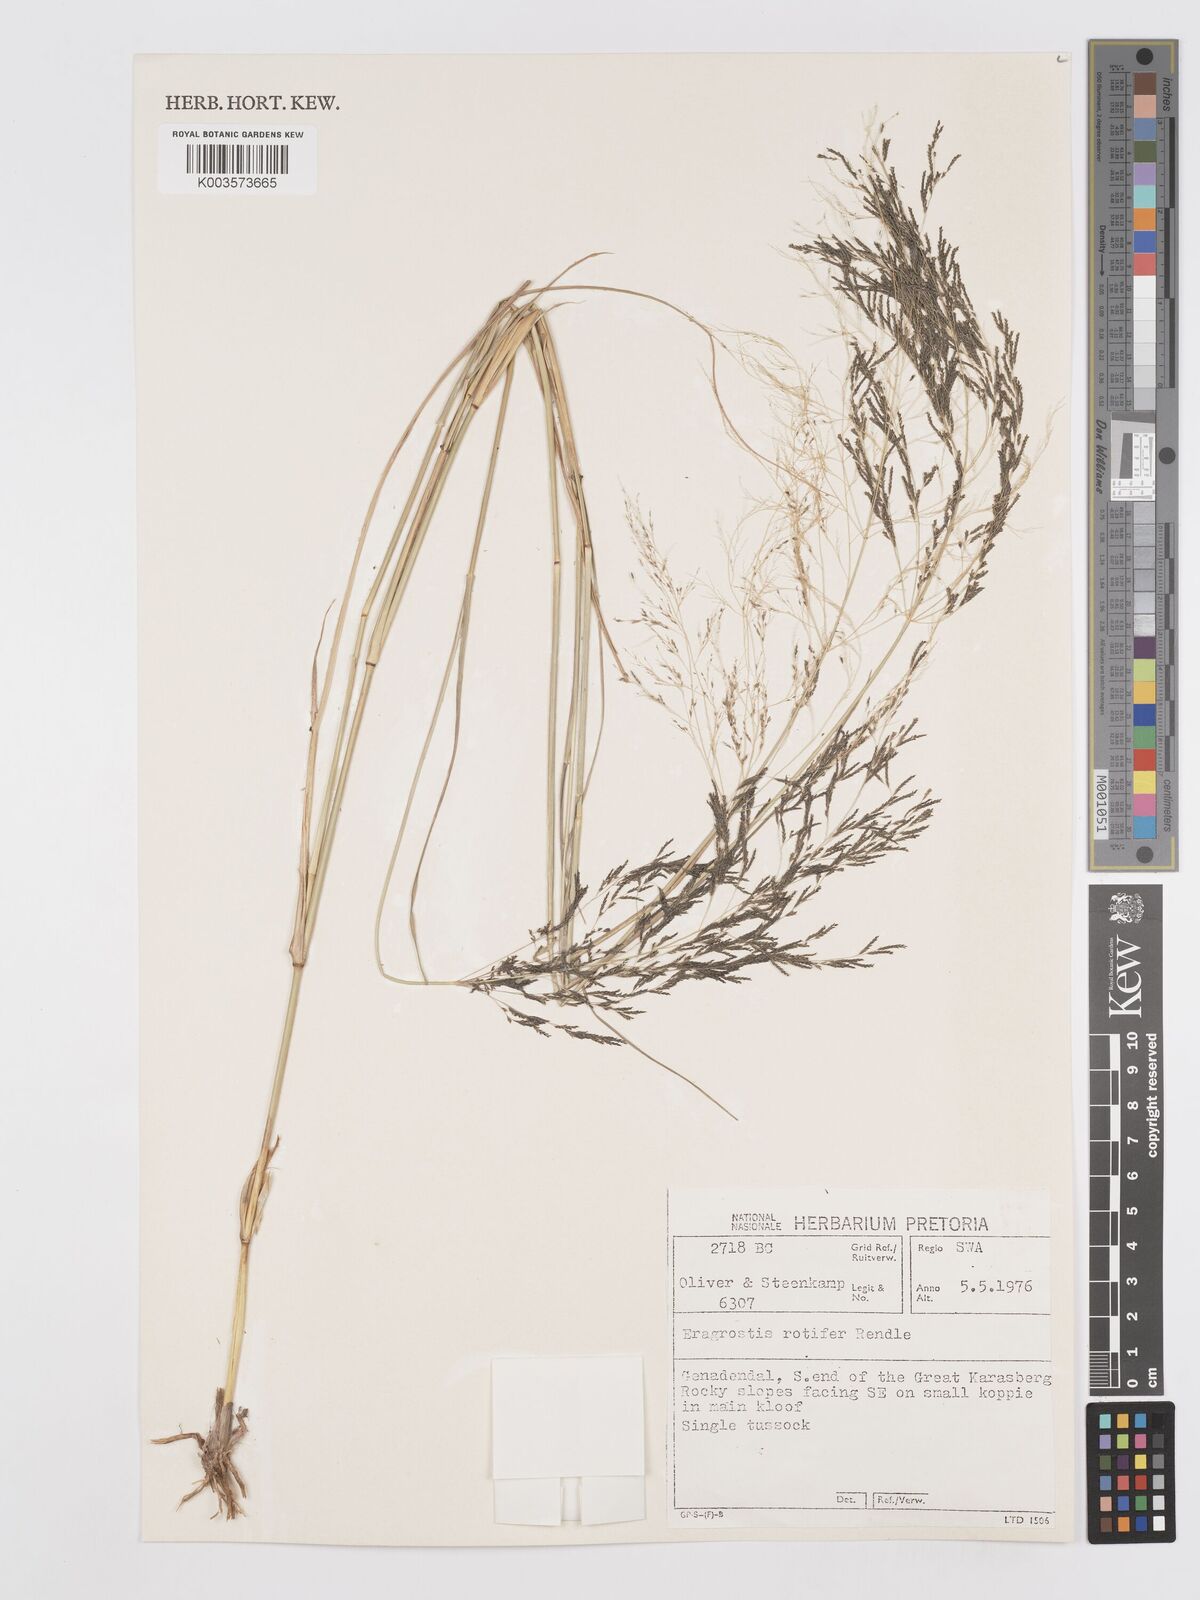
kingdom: Plantae
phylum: Tracheophyta
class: Liliopsida
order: Poales
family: Poaceae
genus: Eragrostis
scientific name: Eragrostis rotifer
